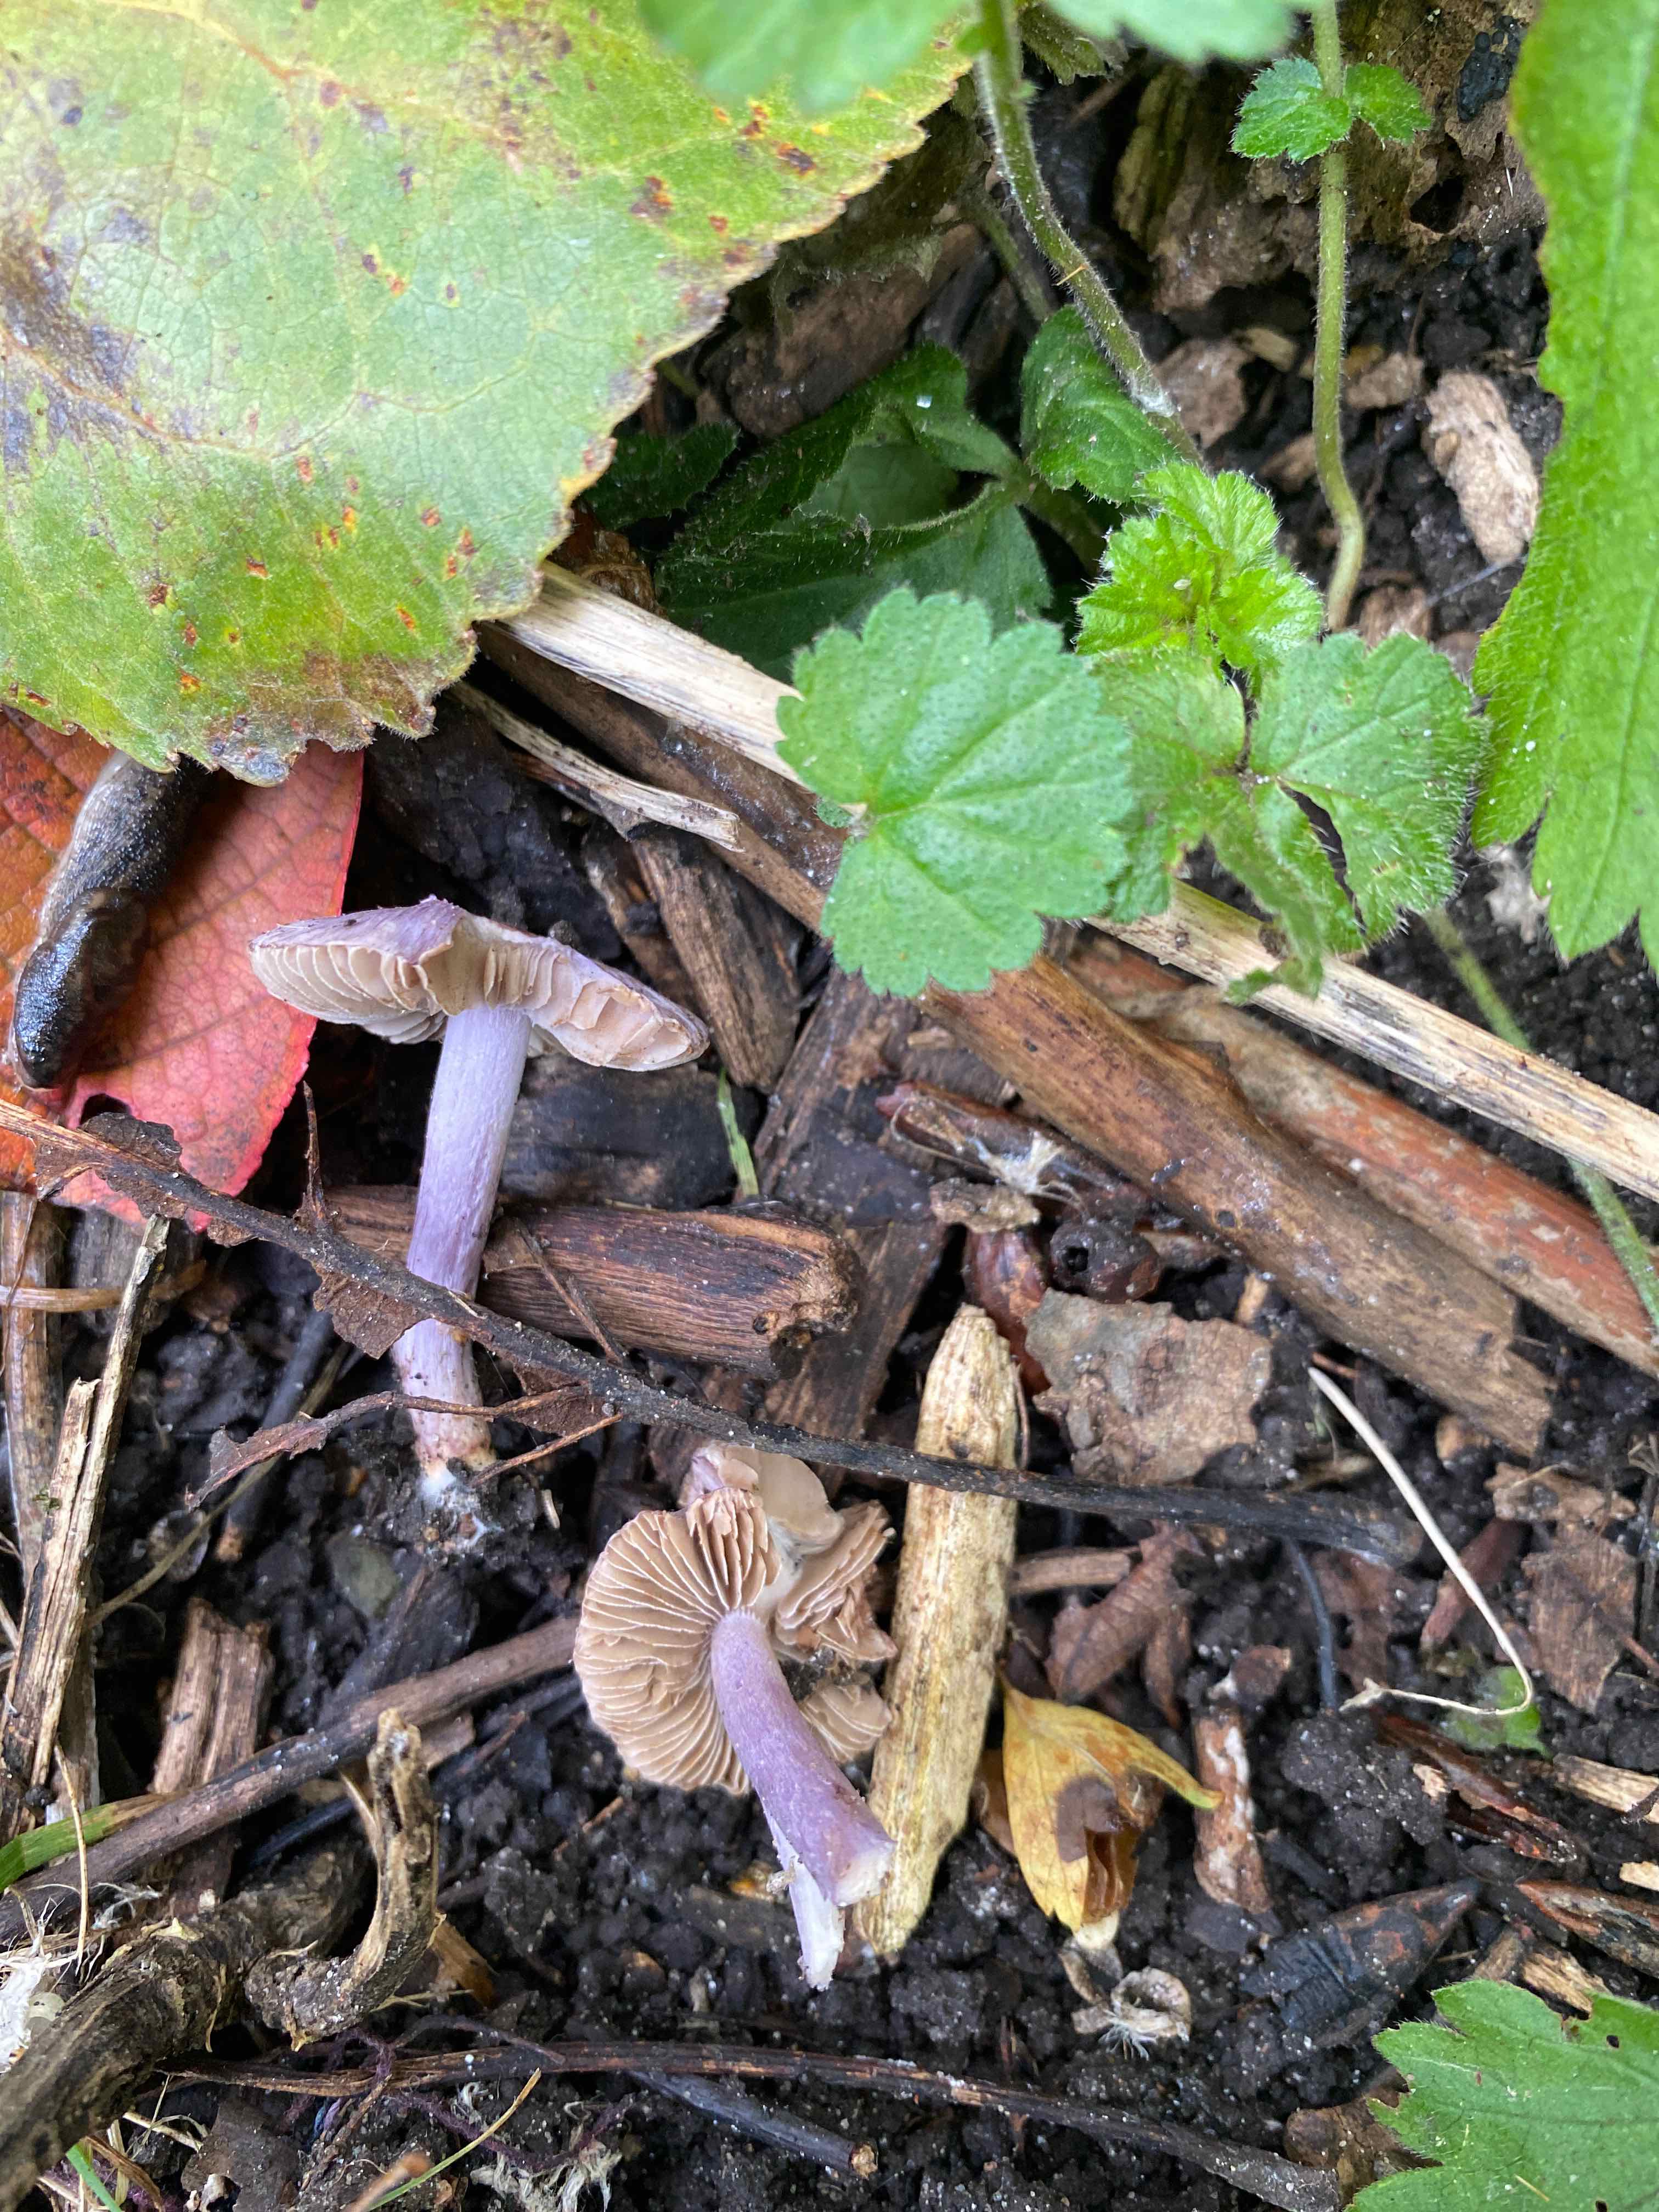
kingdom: Fungi
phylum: Basidiomycota
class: Agaricomycetes
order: Agaricales
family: Inocybaceae
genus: Inocybe
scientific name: Inocybe geophylla
